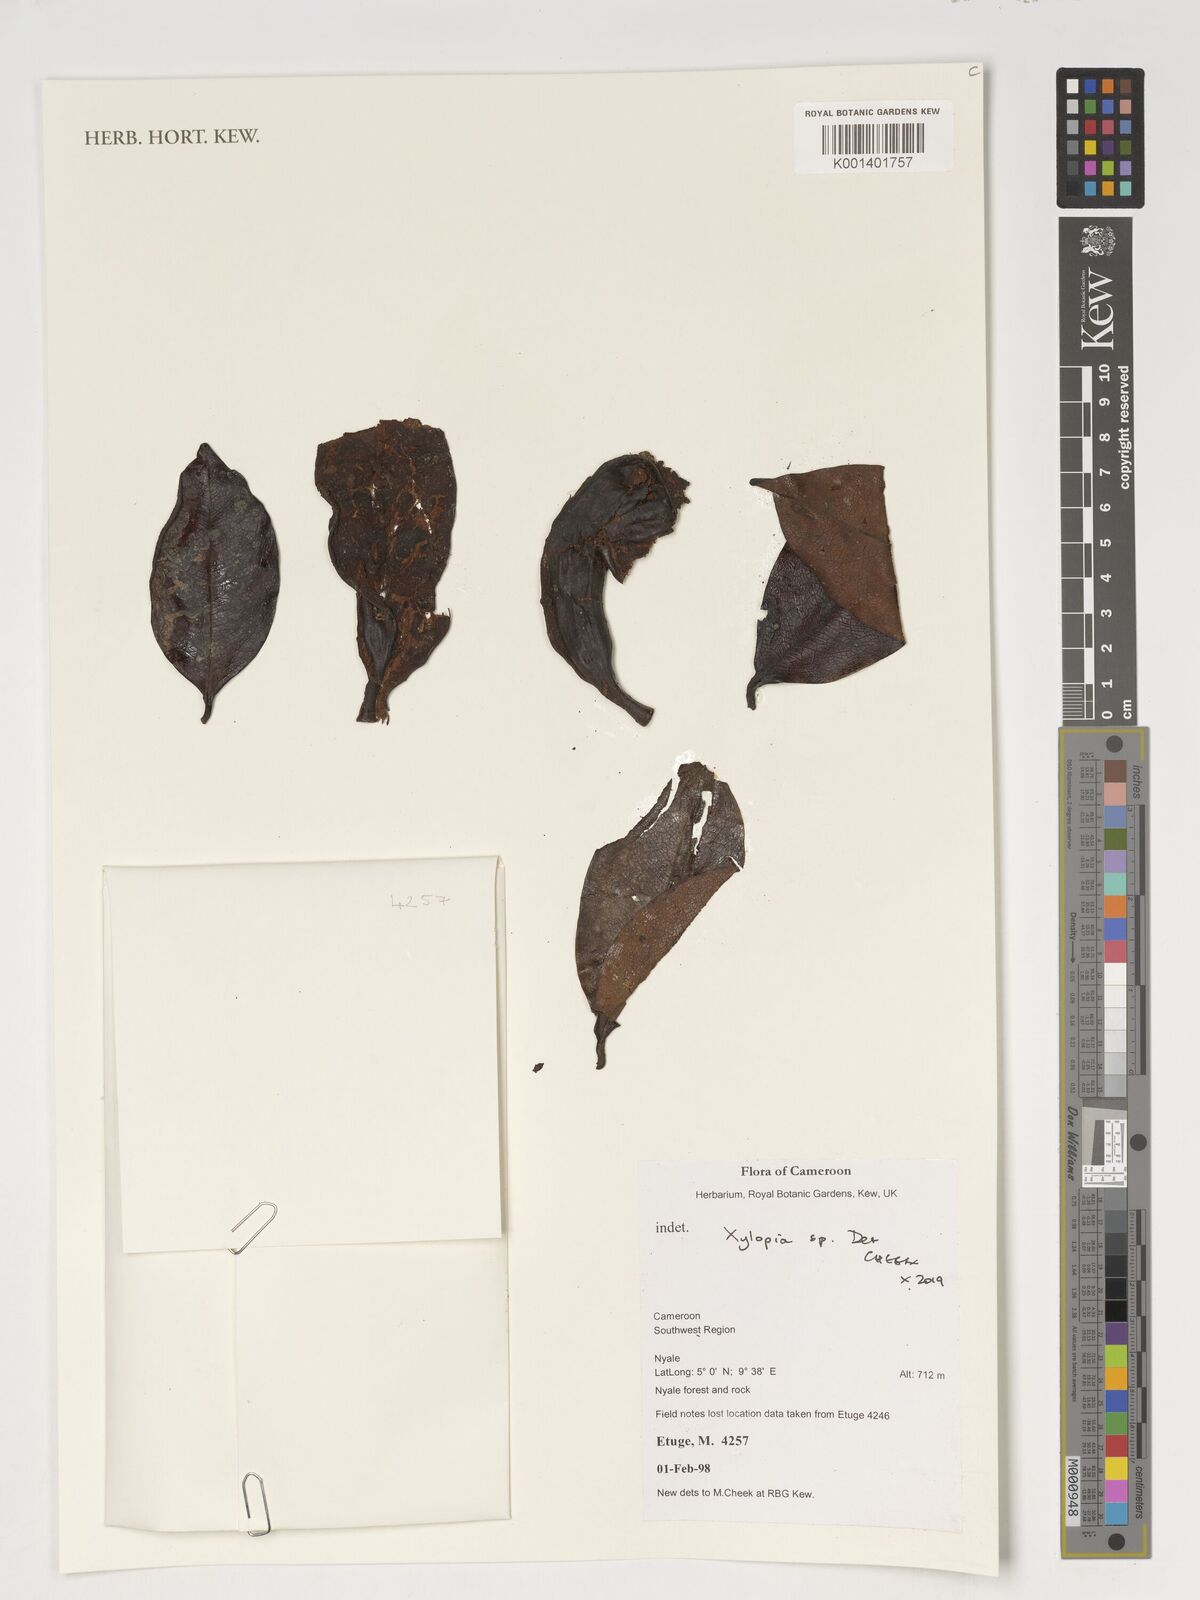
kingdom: Plantae
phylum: Tracheophyta
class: Magnoliopsida
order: Magnoliales
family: Annonaceae
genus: Xylopia
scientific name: Xylopia
